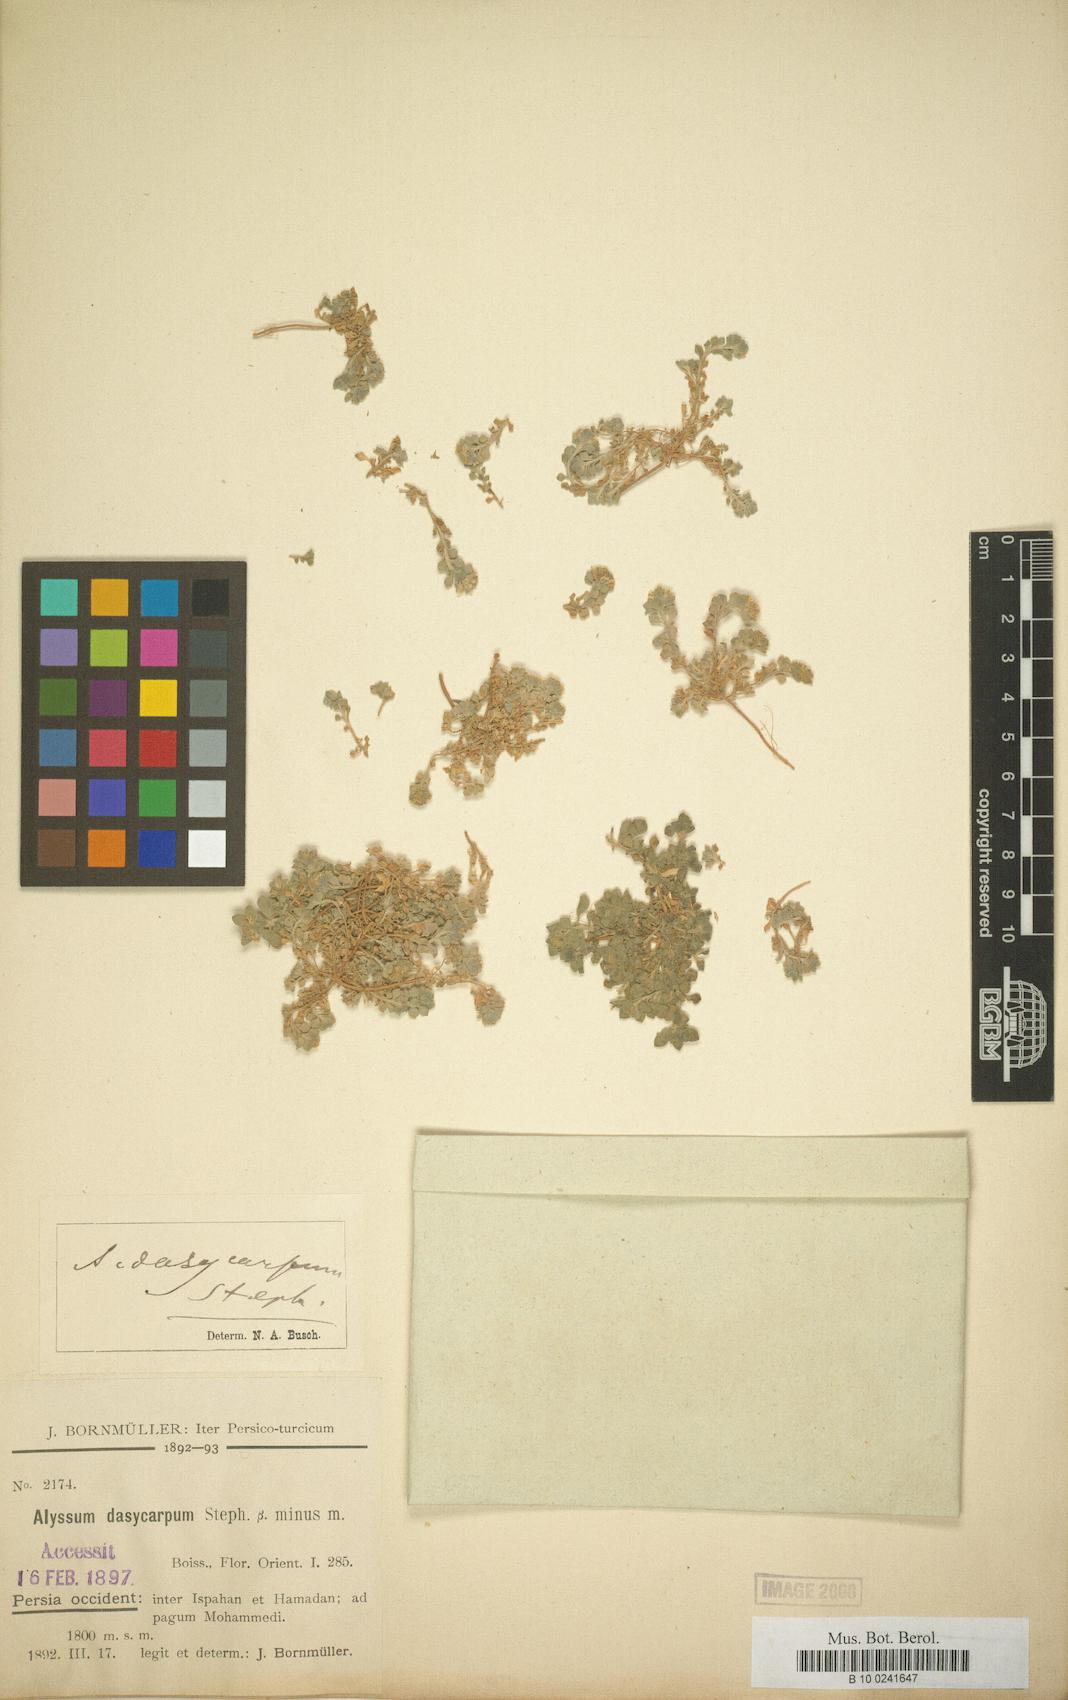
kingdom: Plantae
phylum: Tracheophyta
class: Magnoliopsida
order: Brassicales
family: Brassicaceae
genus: Alyssum
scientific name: Alyssum dasycarpum
